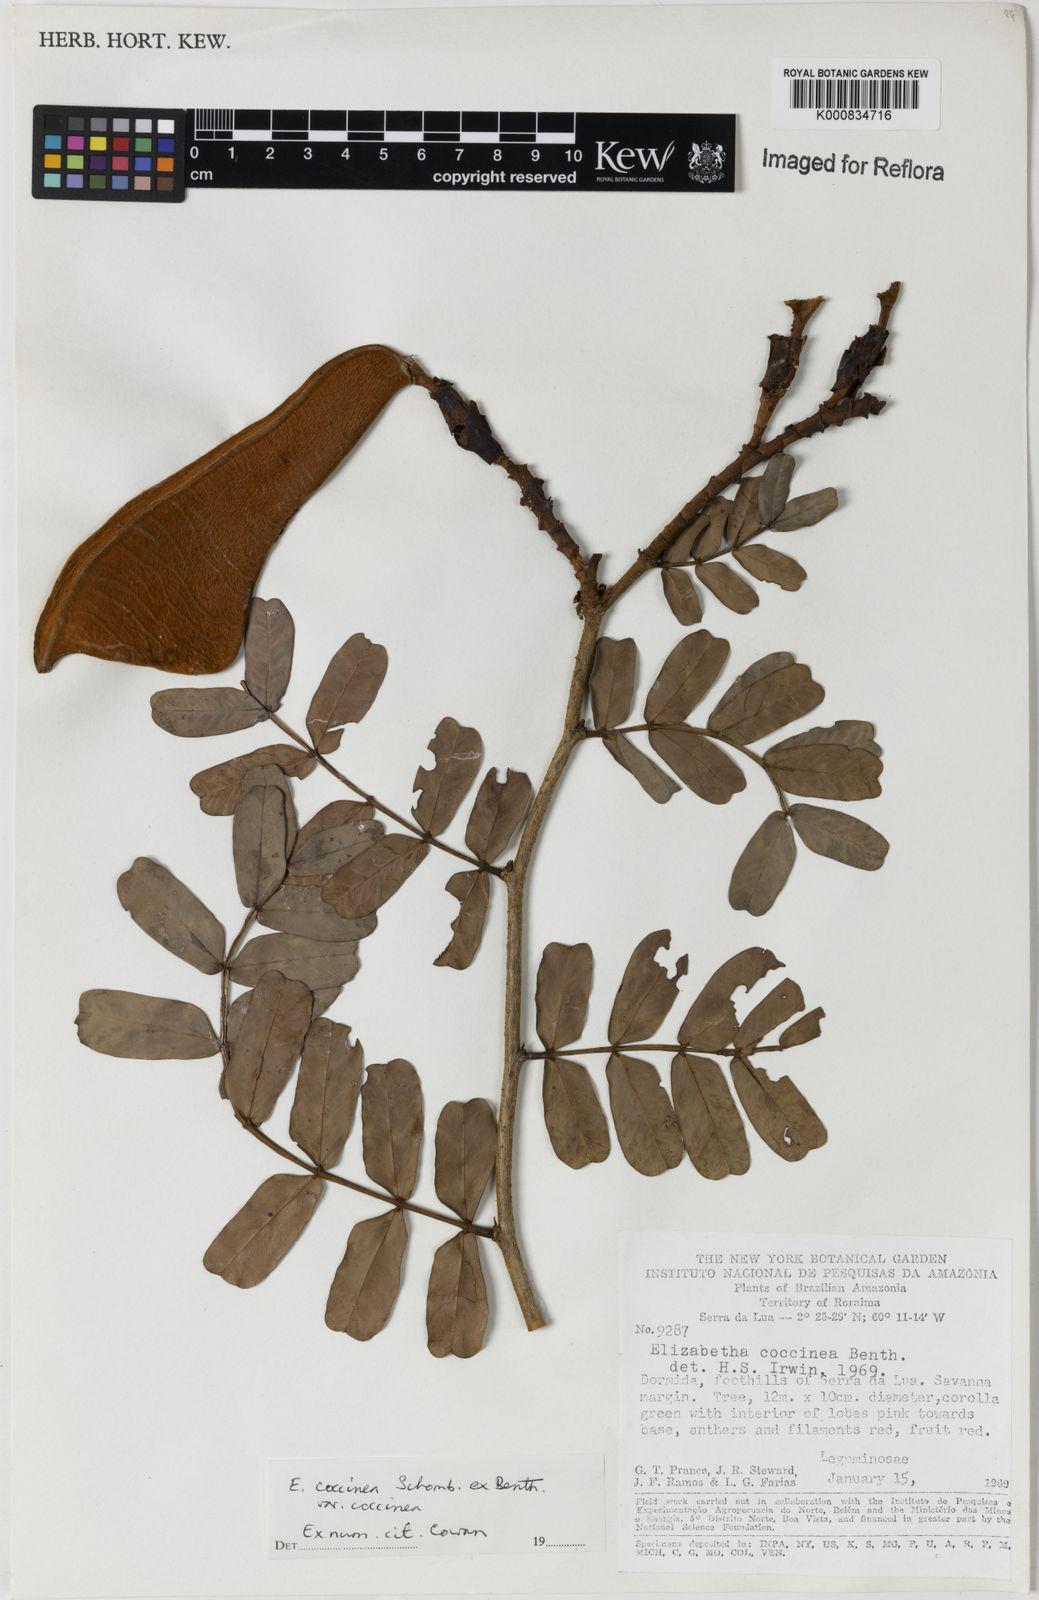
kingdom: Plantae
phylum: Tracheophyta
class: Magnoliopsida
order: Fabales
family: Fabaceae
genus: Paloue
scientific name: Paloue coccinea
